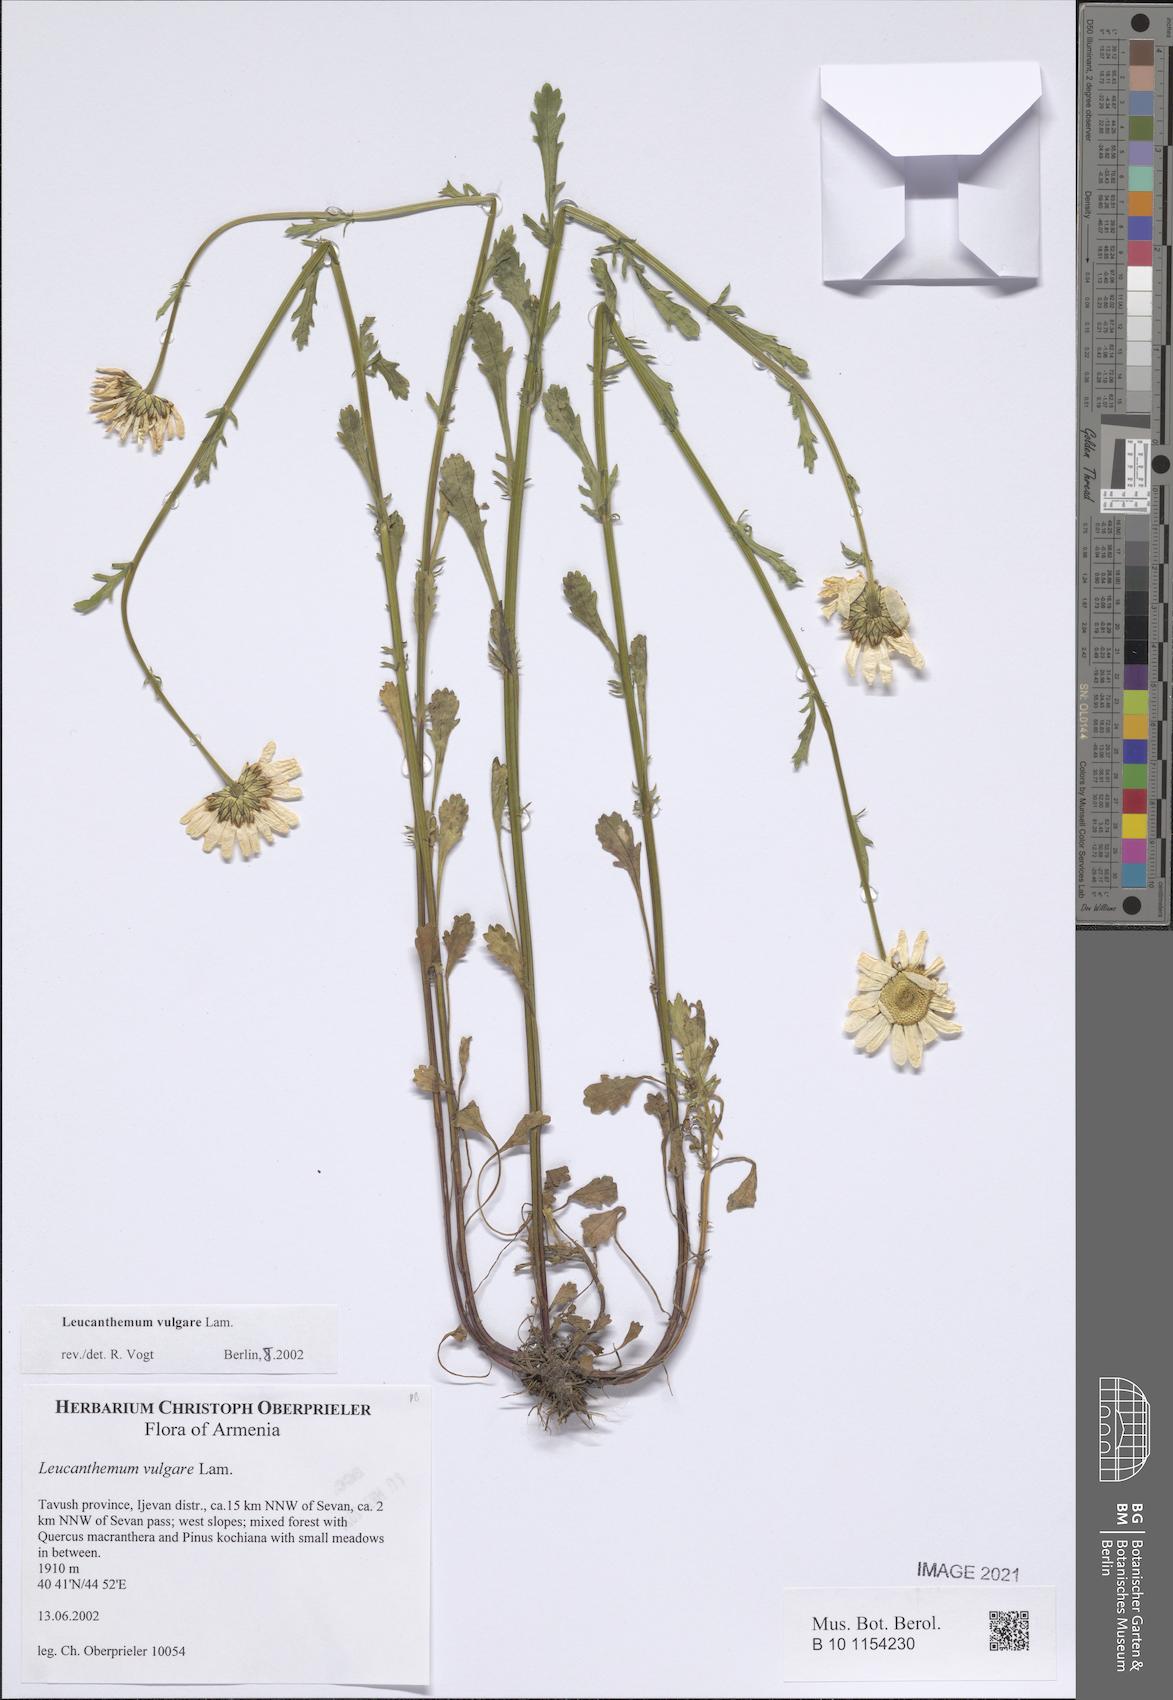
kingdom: Plantae
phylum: Tracheophyta
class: Magnoliopsida
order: Asterales
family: Asteraceae
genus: Leucanthemum
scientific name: Leucanthemum vulgare
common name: Oxeye daisy
